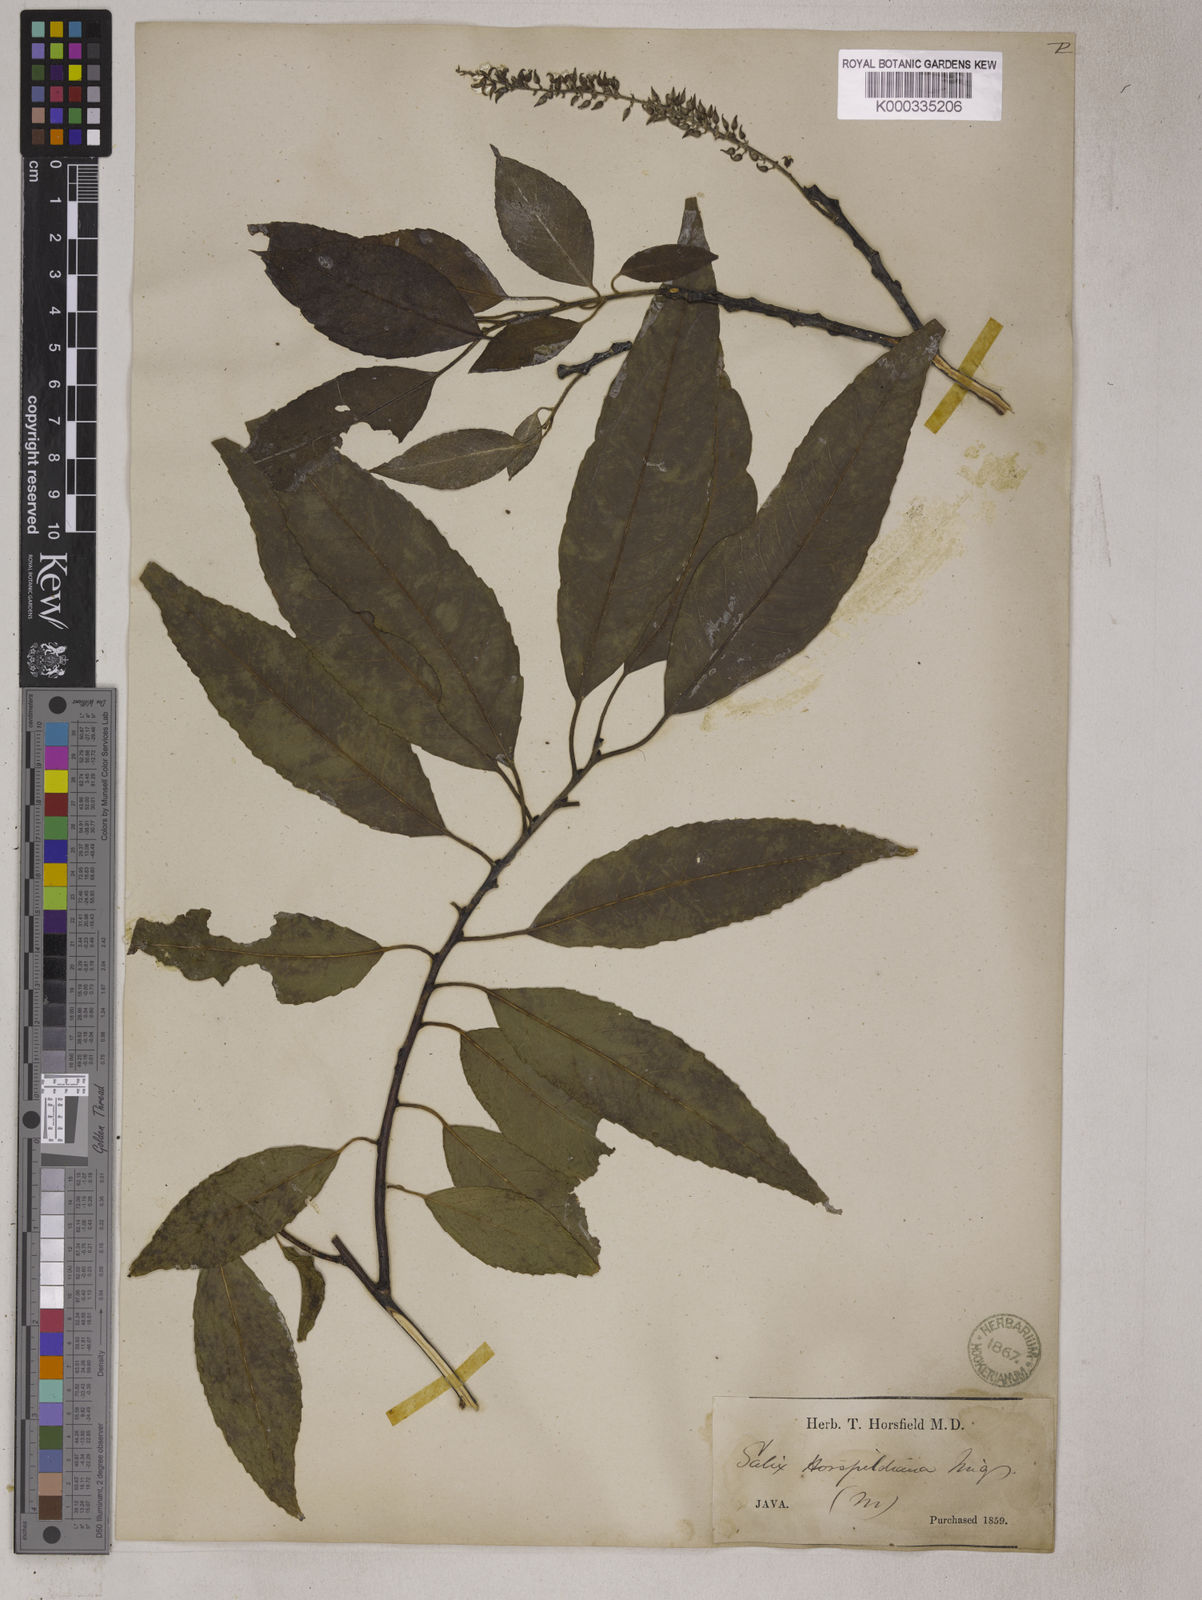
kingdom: Plantae
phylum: Tracheophyta
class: Magnoliopsida
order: Malpighiales
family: Salicaceae
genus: Salix
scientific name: Salix tetrasperma
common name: Indian willow
